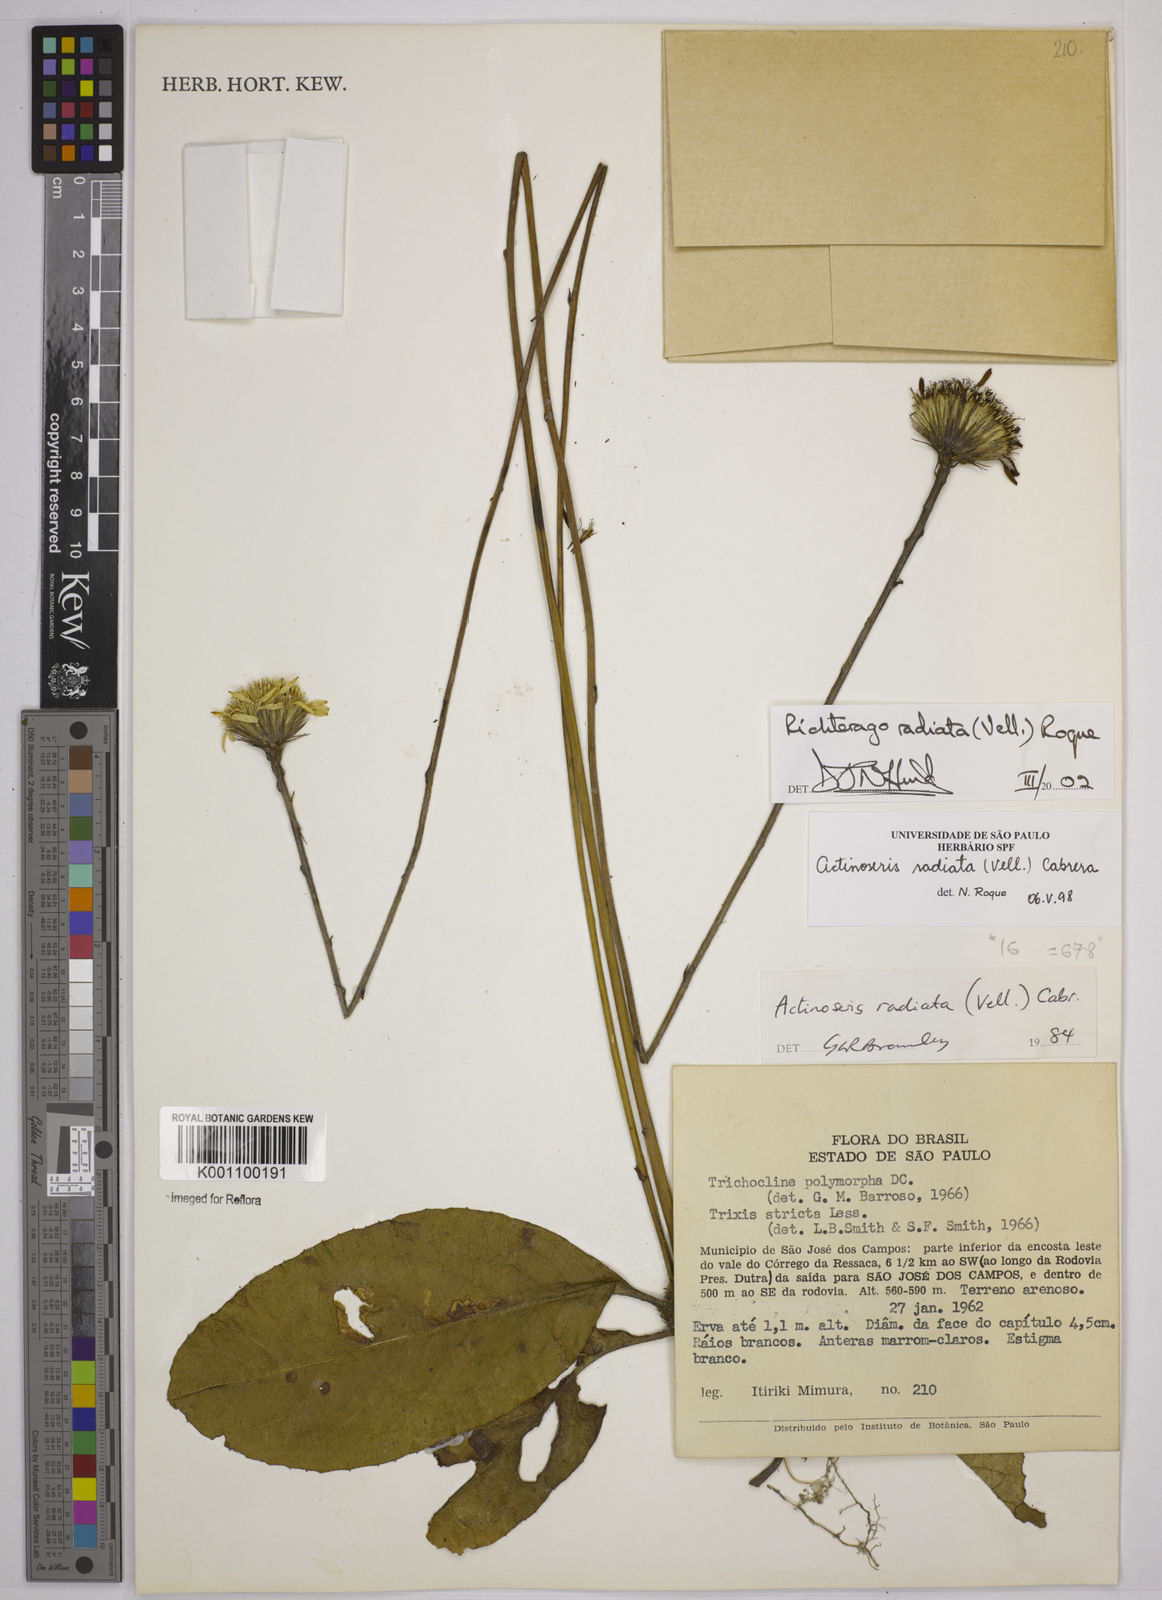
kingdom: Plantae
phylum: Tracheophyta
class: Magnoliopsida
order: Asterales
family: Asteraceae
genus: Richterago
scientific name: Richterago radiata
